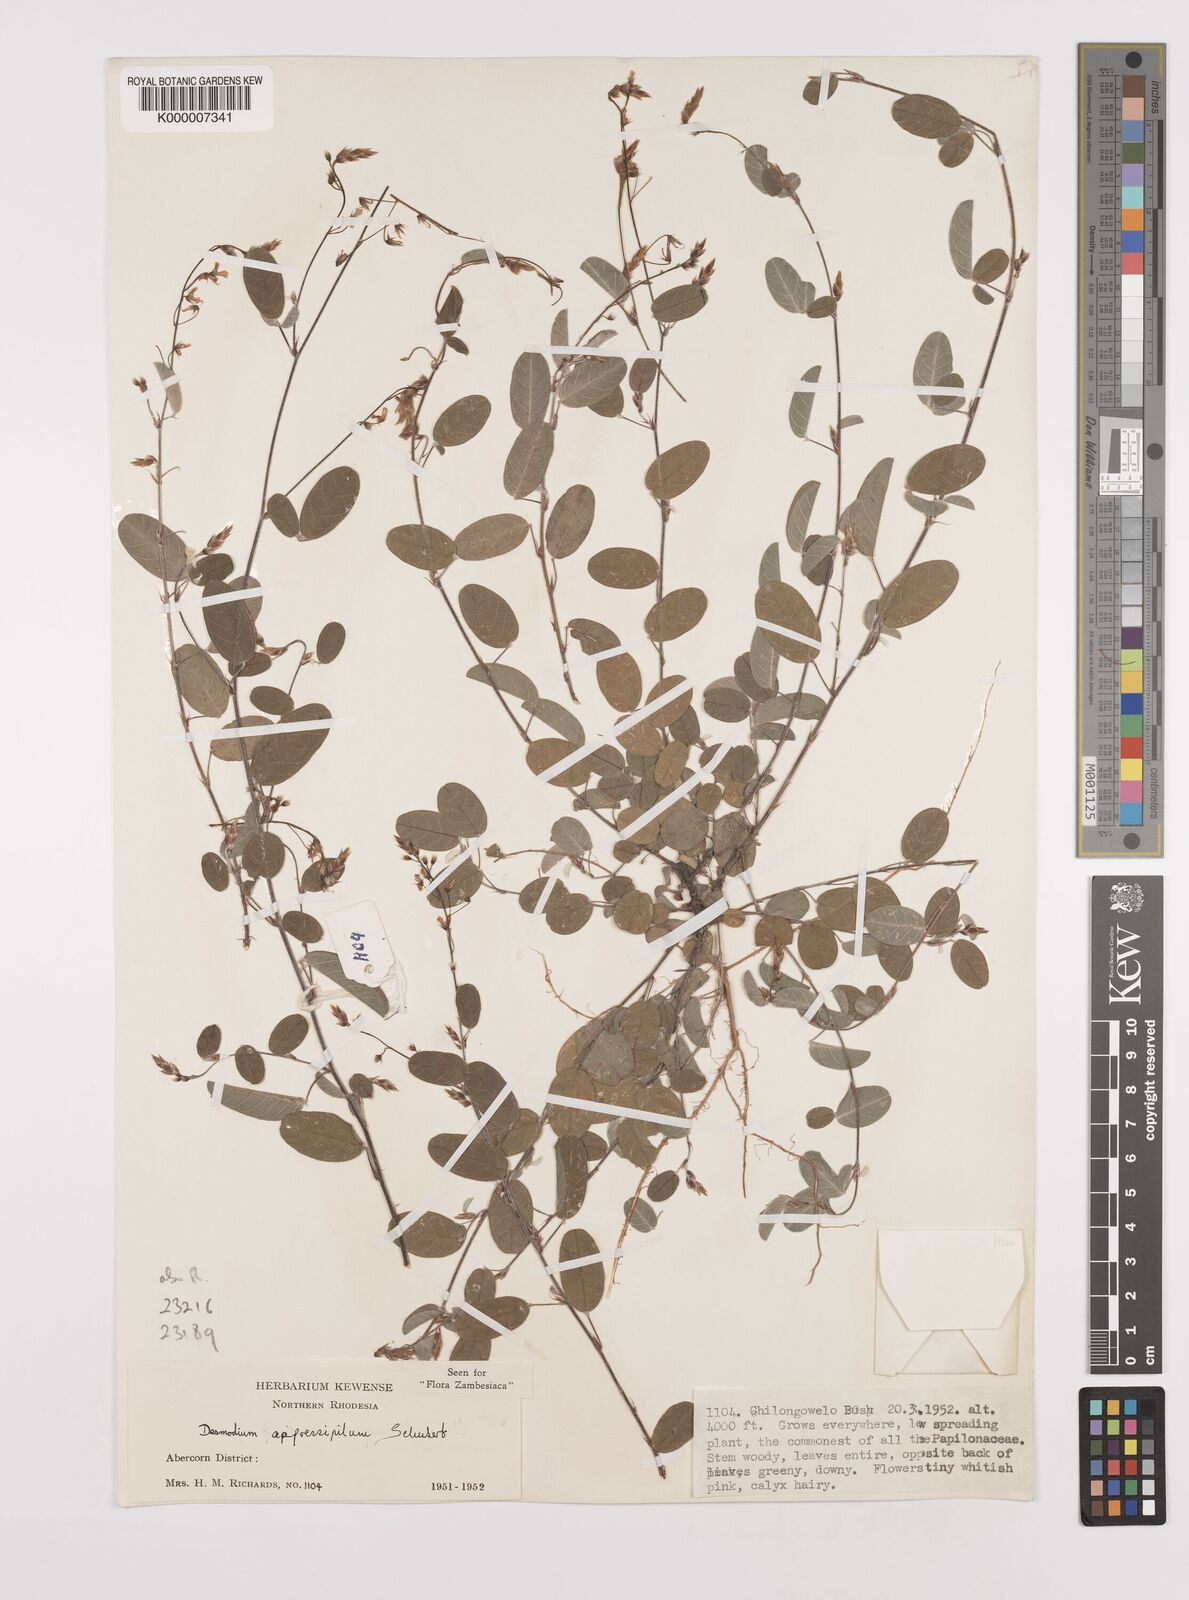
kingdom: Plantae
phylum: Tracheophyta
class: Magnoliopsida
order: Fabales
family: Fabaceae
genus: Grona
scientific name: Grona appressipila
